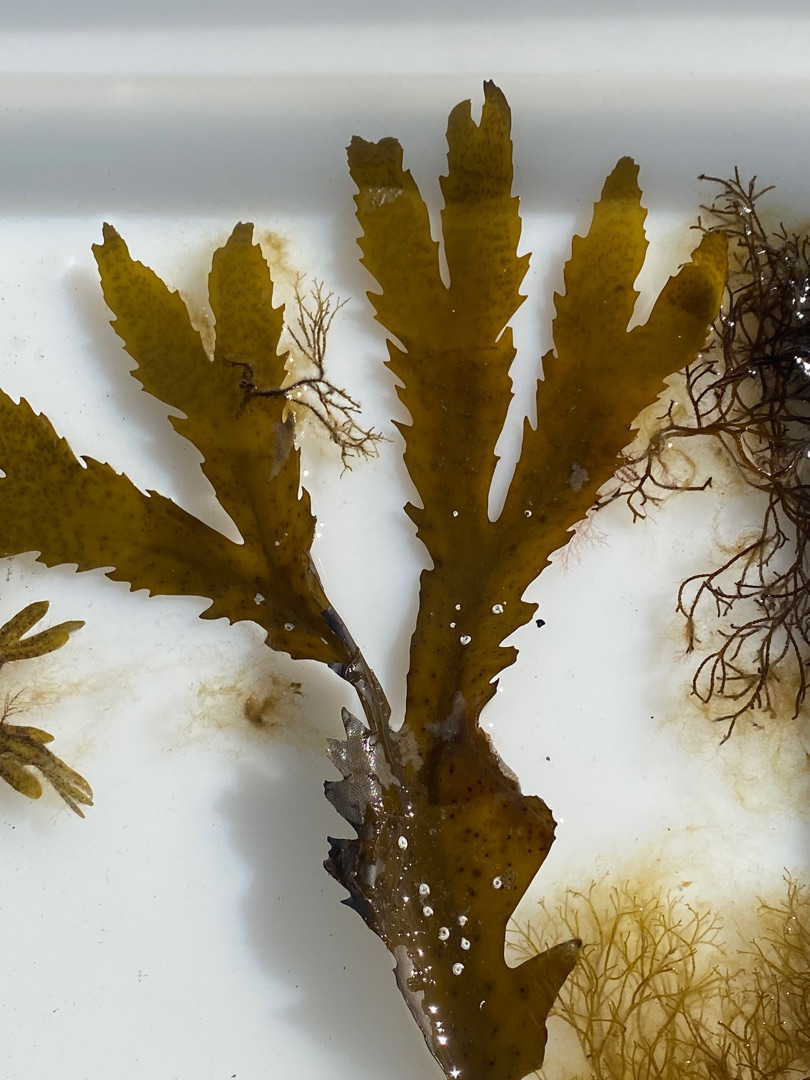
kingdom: Chromista
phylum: Ochrophyta
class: Phaeophyceae
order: Fucales
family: Fucaceae
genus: Fucus
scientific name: Fucus serratus
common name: Savtang
